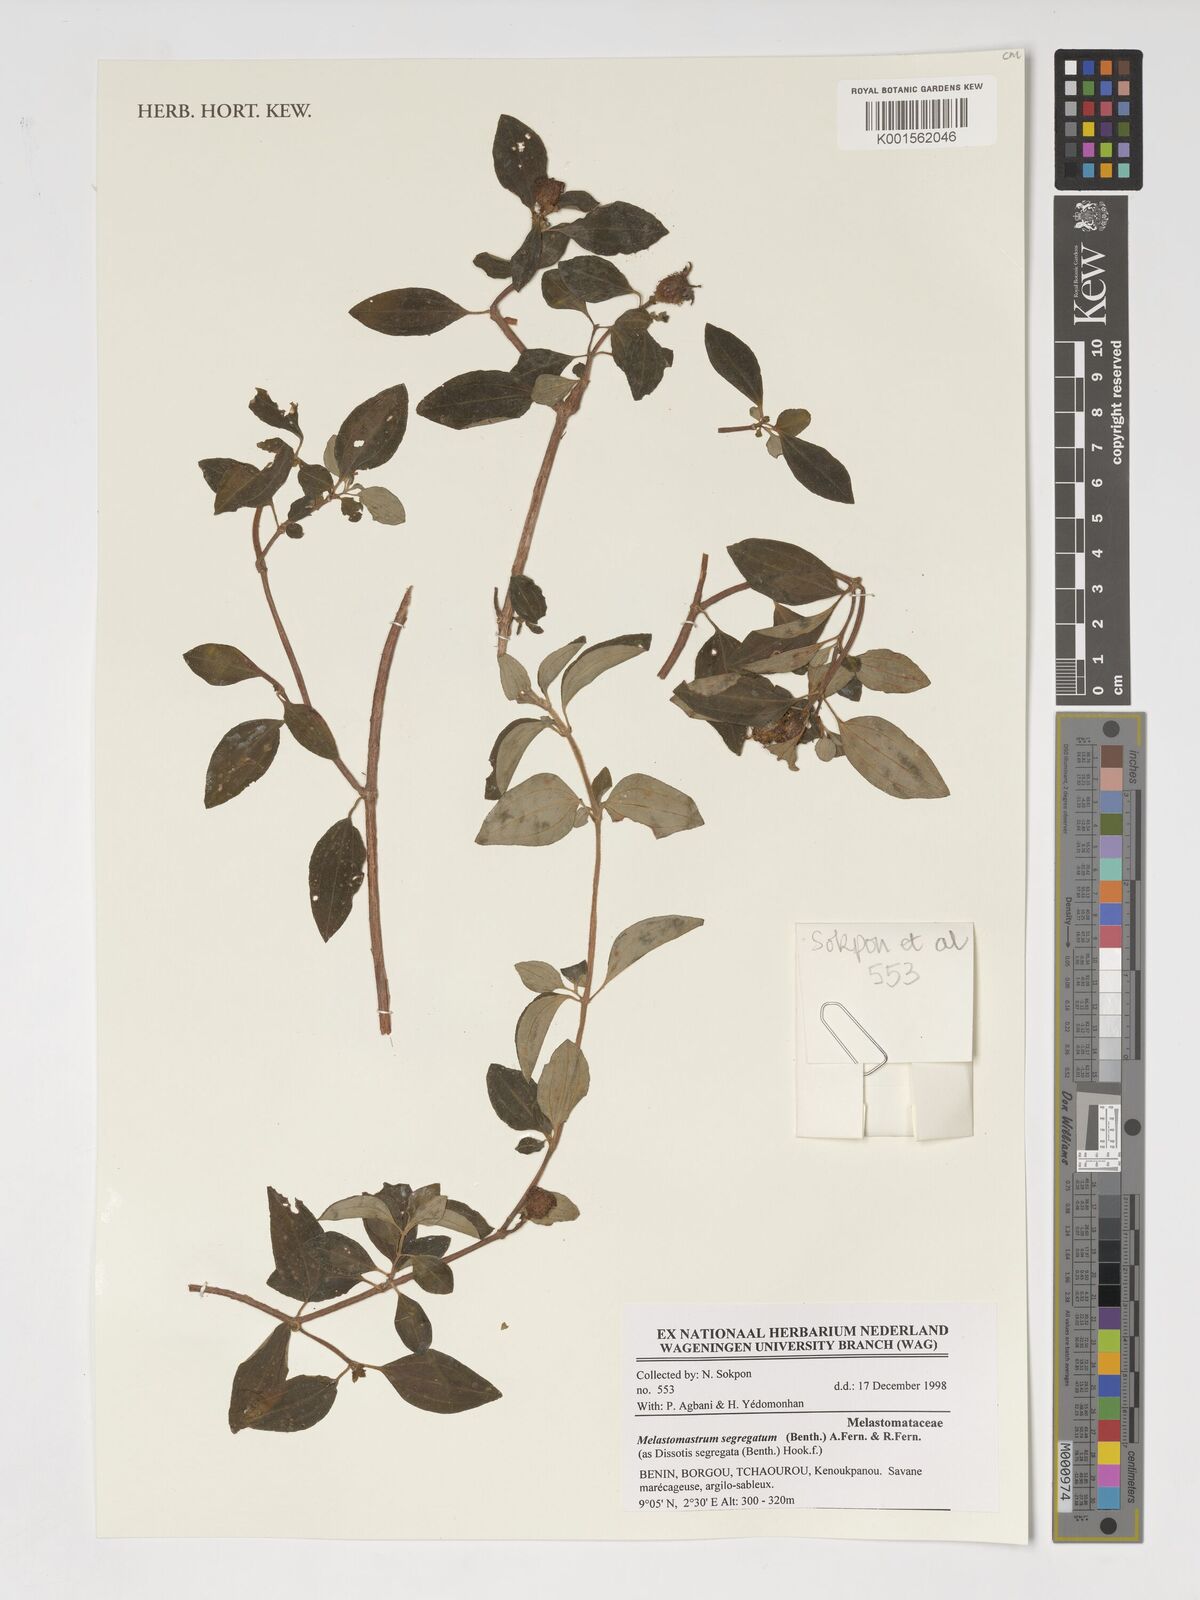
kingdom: Plantae
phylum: Tracheophyta
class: Magnoliopsida
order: Myrtales
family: Melastomataceae
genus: Melastomastrum
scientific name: Melastomastrum segregatum
